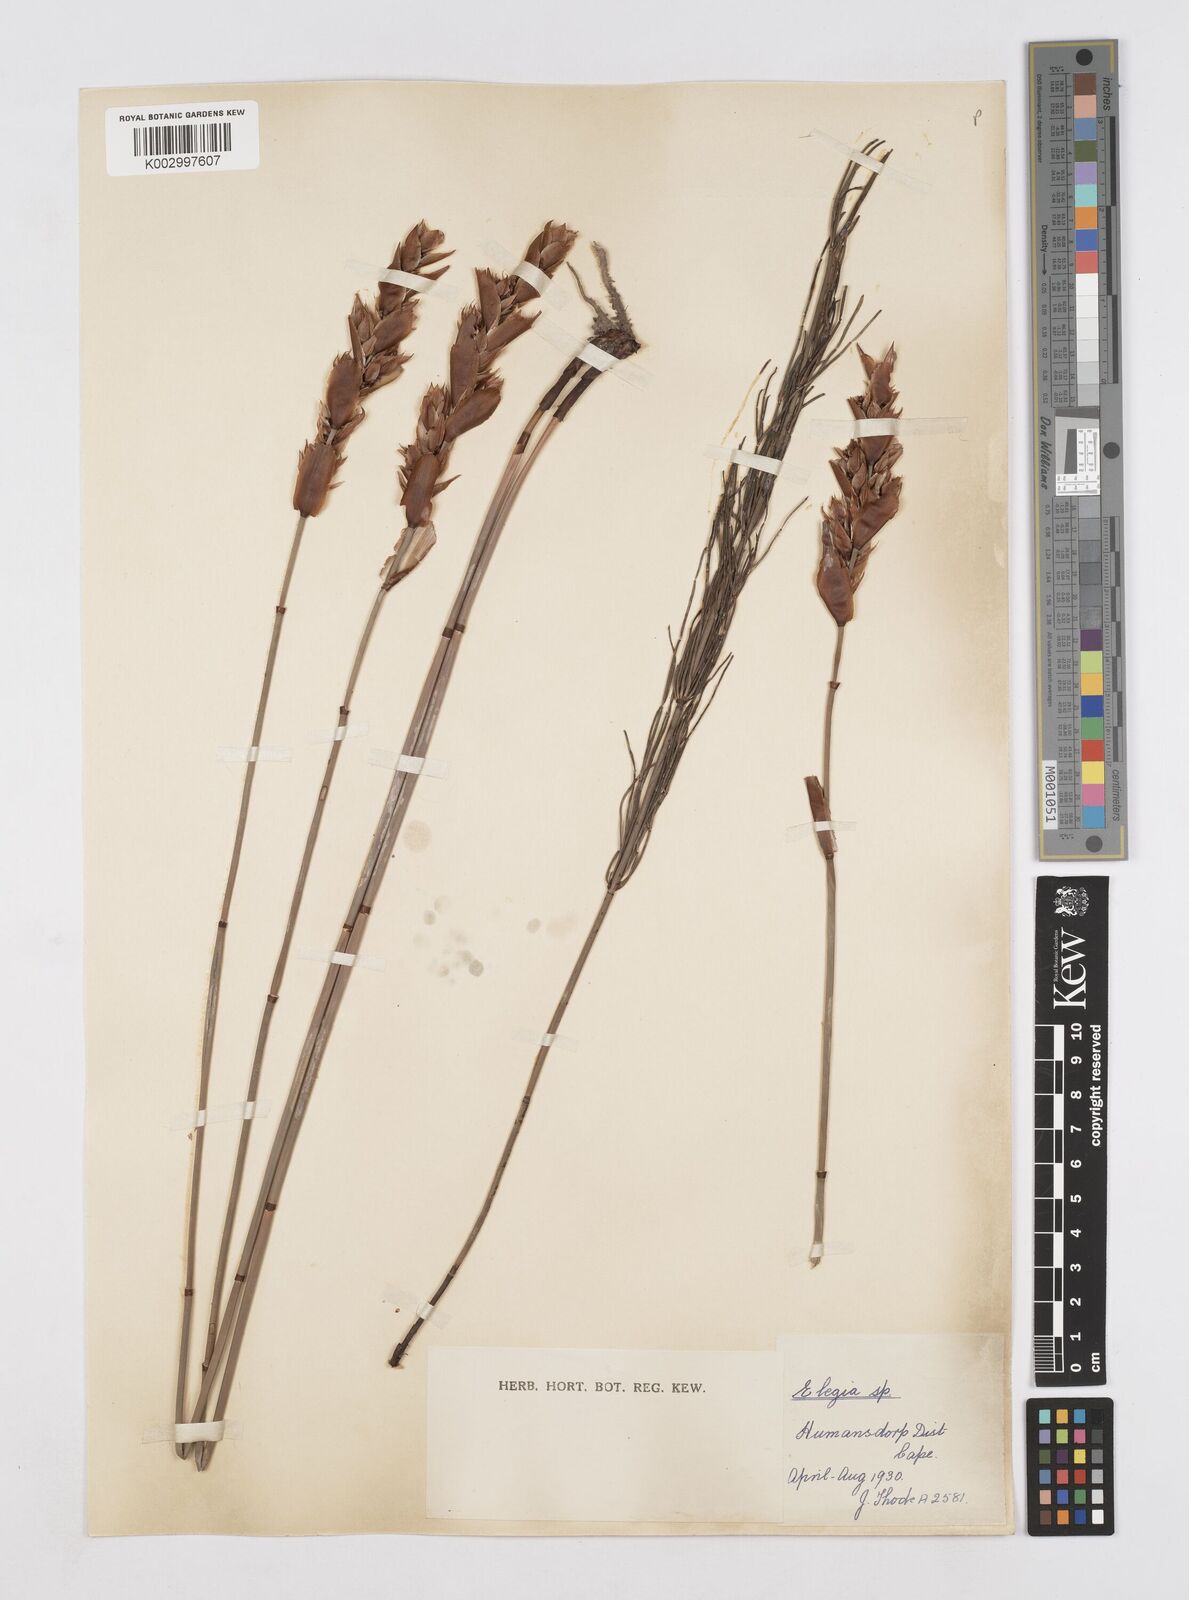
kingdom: Plantae
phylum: Tracheophyta
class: Liliopsida
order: Poales
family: Restionaceae
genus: Elegia
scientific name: Elegia equisetacea
